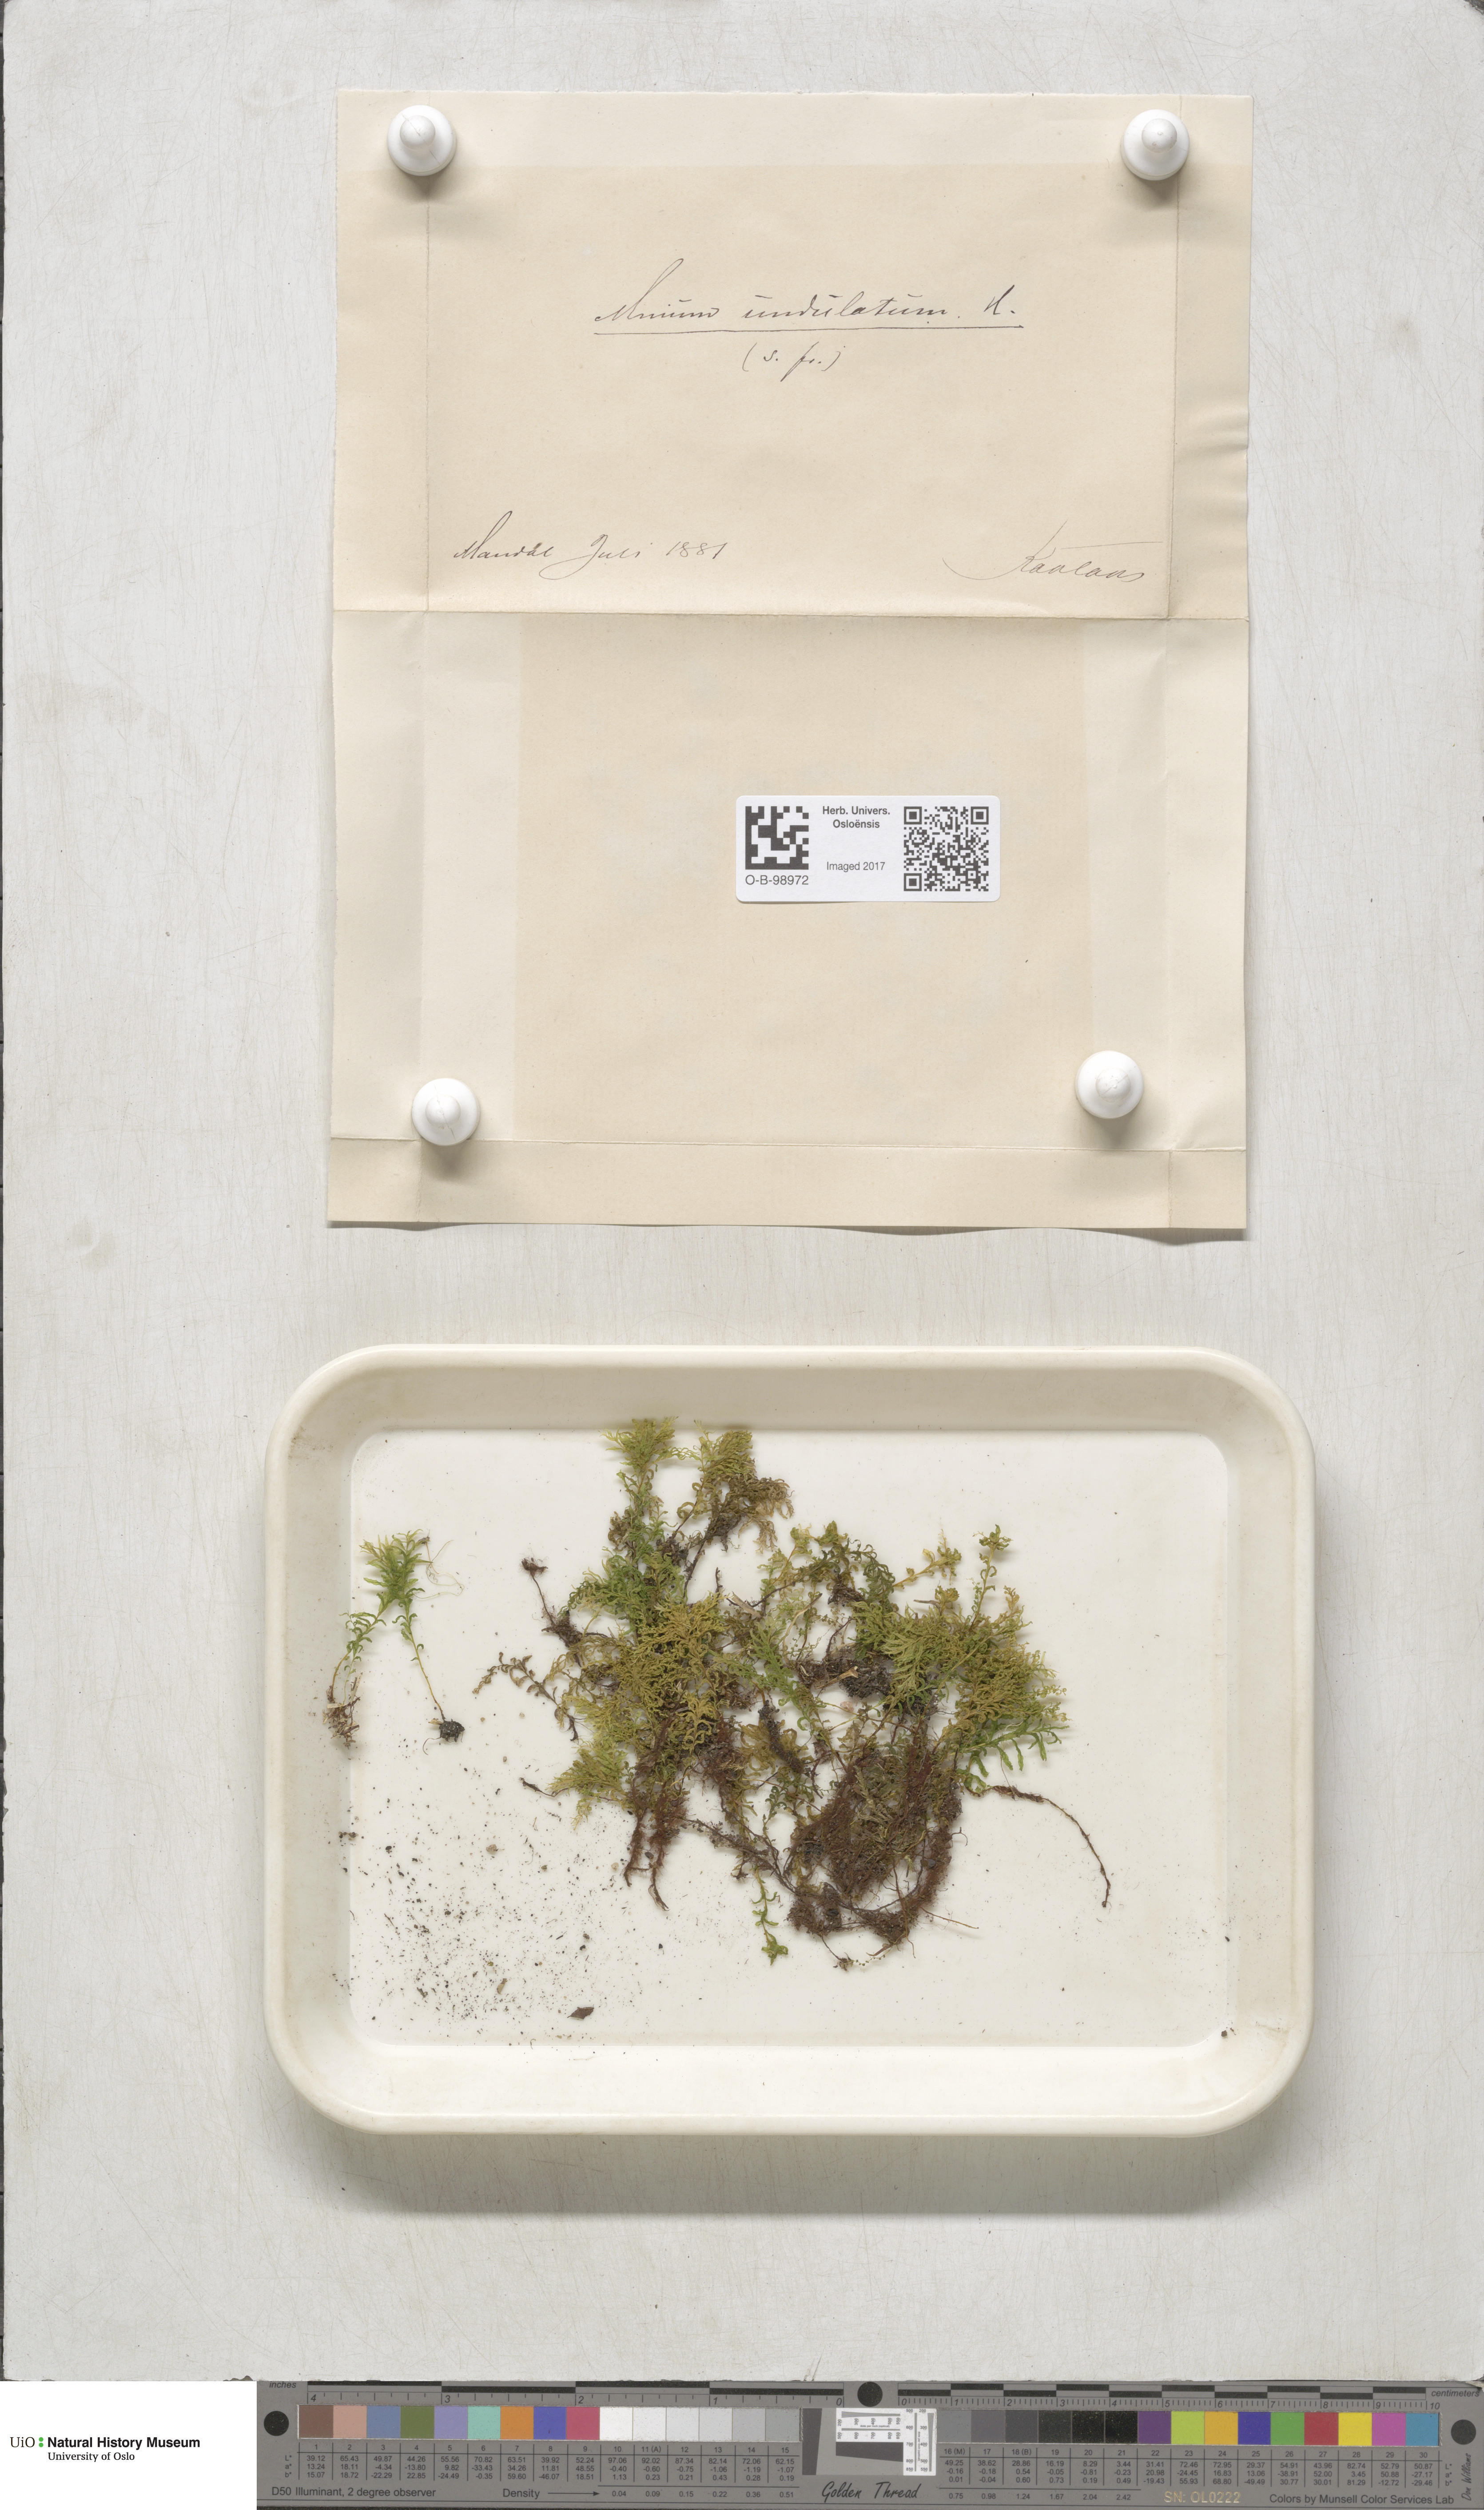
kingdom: Plantae
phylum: Bryophyta
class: Bryopsida
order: Bryales
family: Mniaceae
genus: Plagiomnium
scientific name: Plagiomnium undulatum
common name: Hart's-tongue thyme-moss
